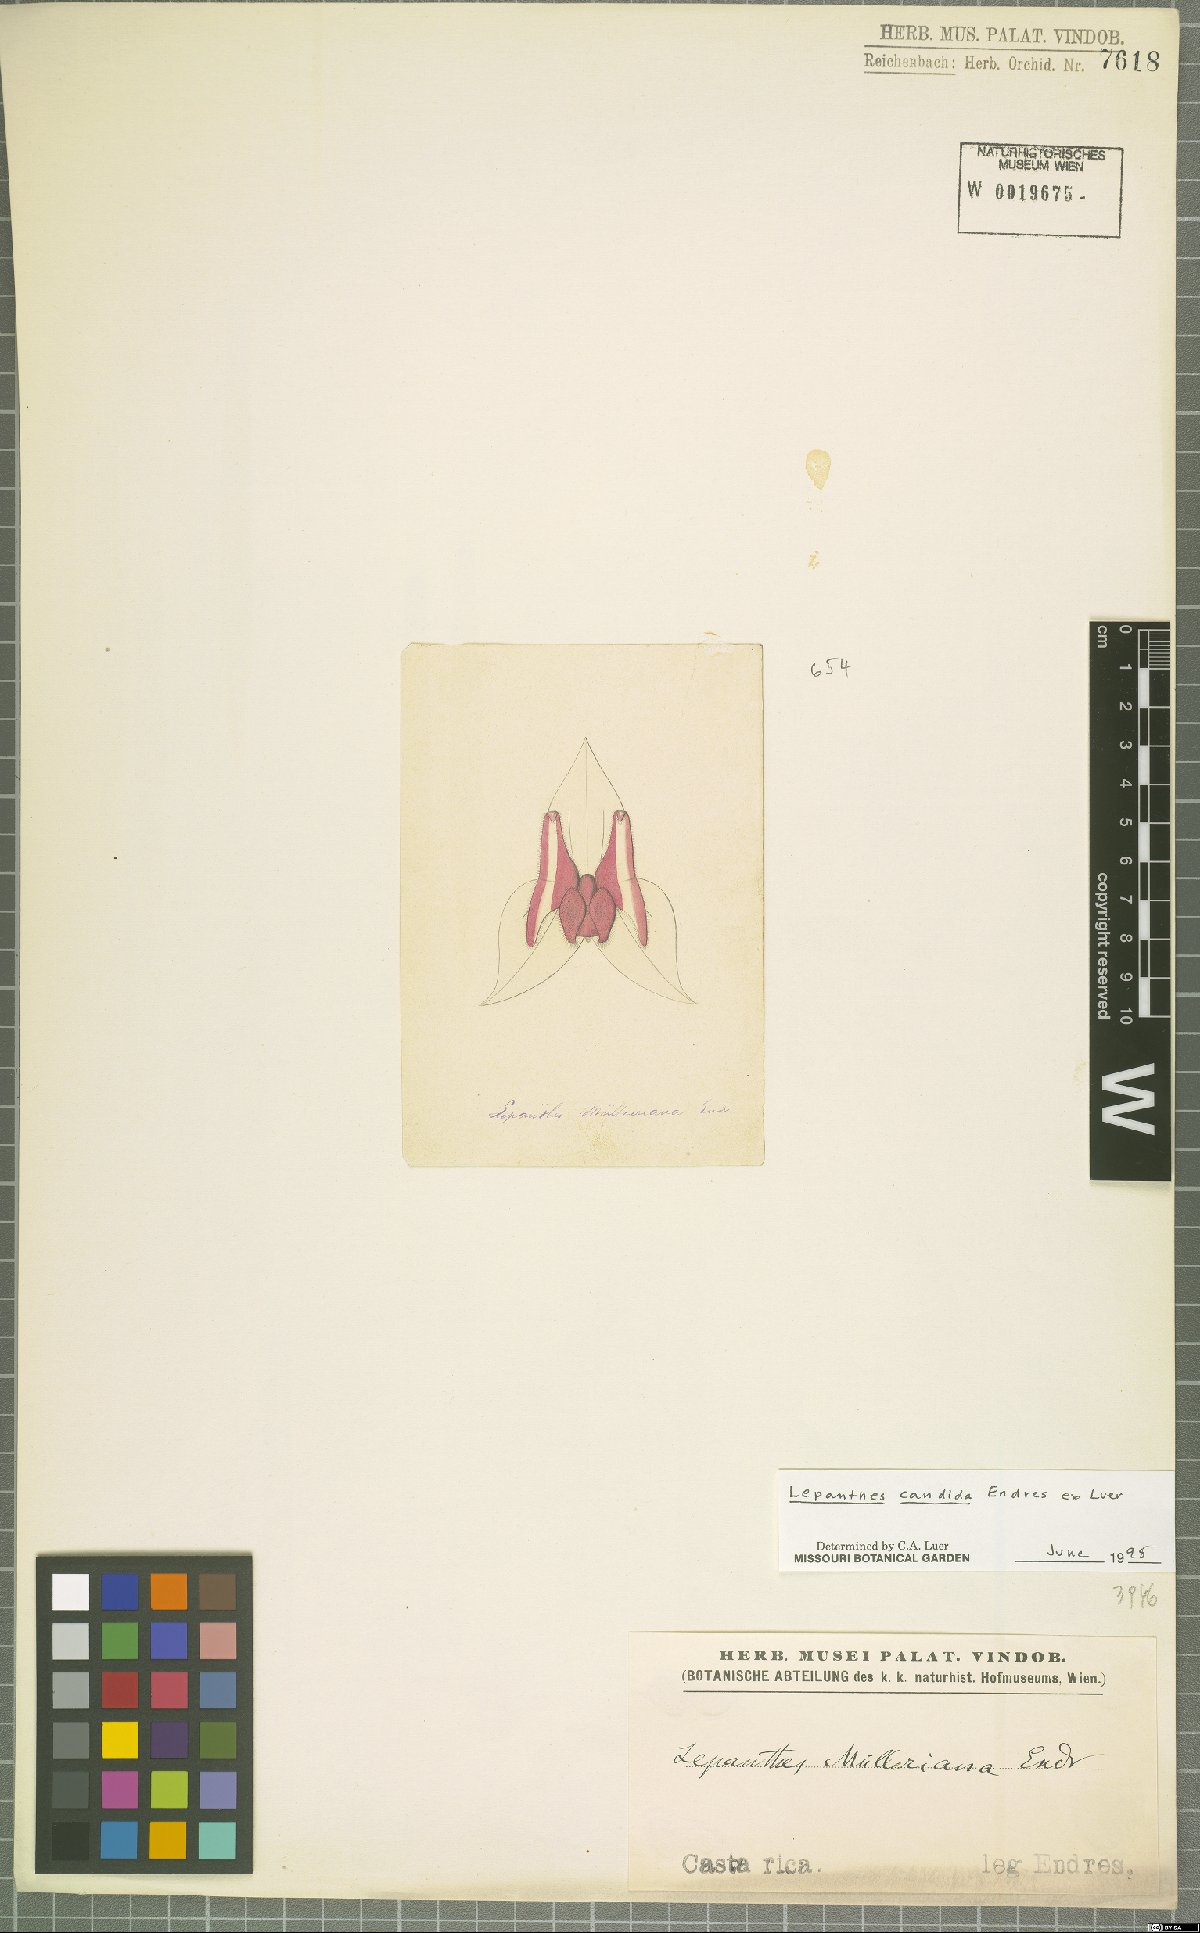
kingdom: Plantae
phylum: Tracheophyta
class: Liliopsida
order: Asparagales
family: Orchidaceae
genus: Lepanthes
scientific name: Lepanthes candida
